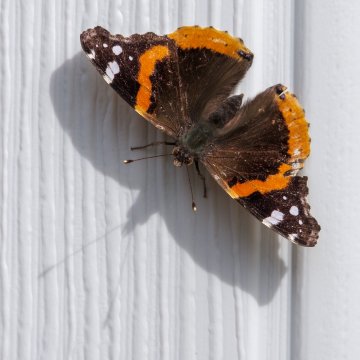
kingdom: Animalia
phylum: Arthropoda
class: Insecta
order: Lepidoptera
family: Nymphalidae
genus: Vanessa
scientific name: Vanessa atalanta
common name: Red Admiral
